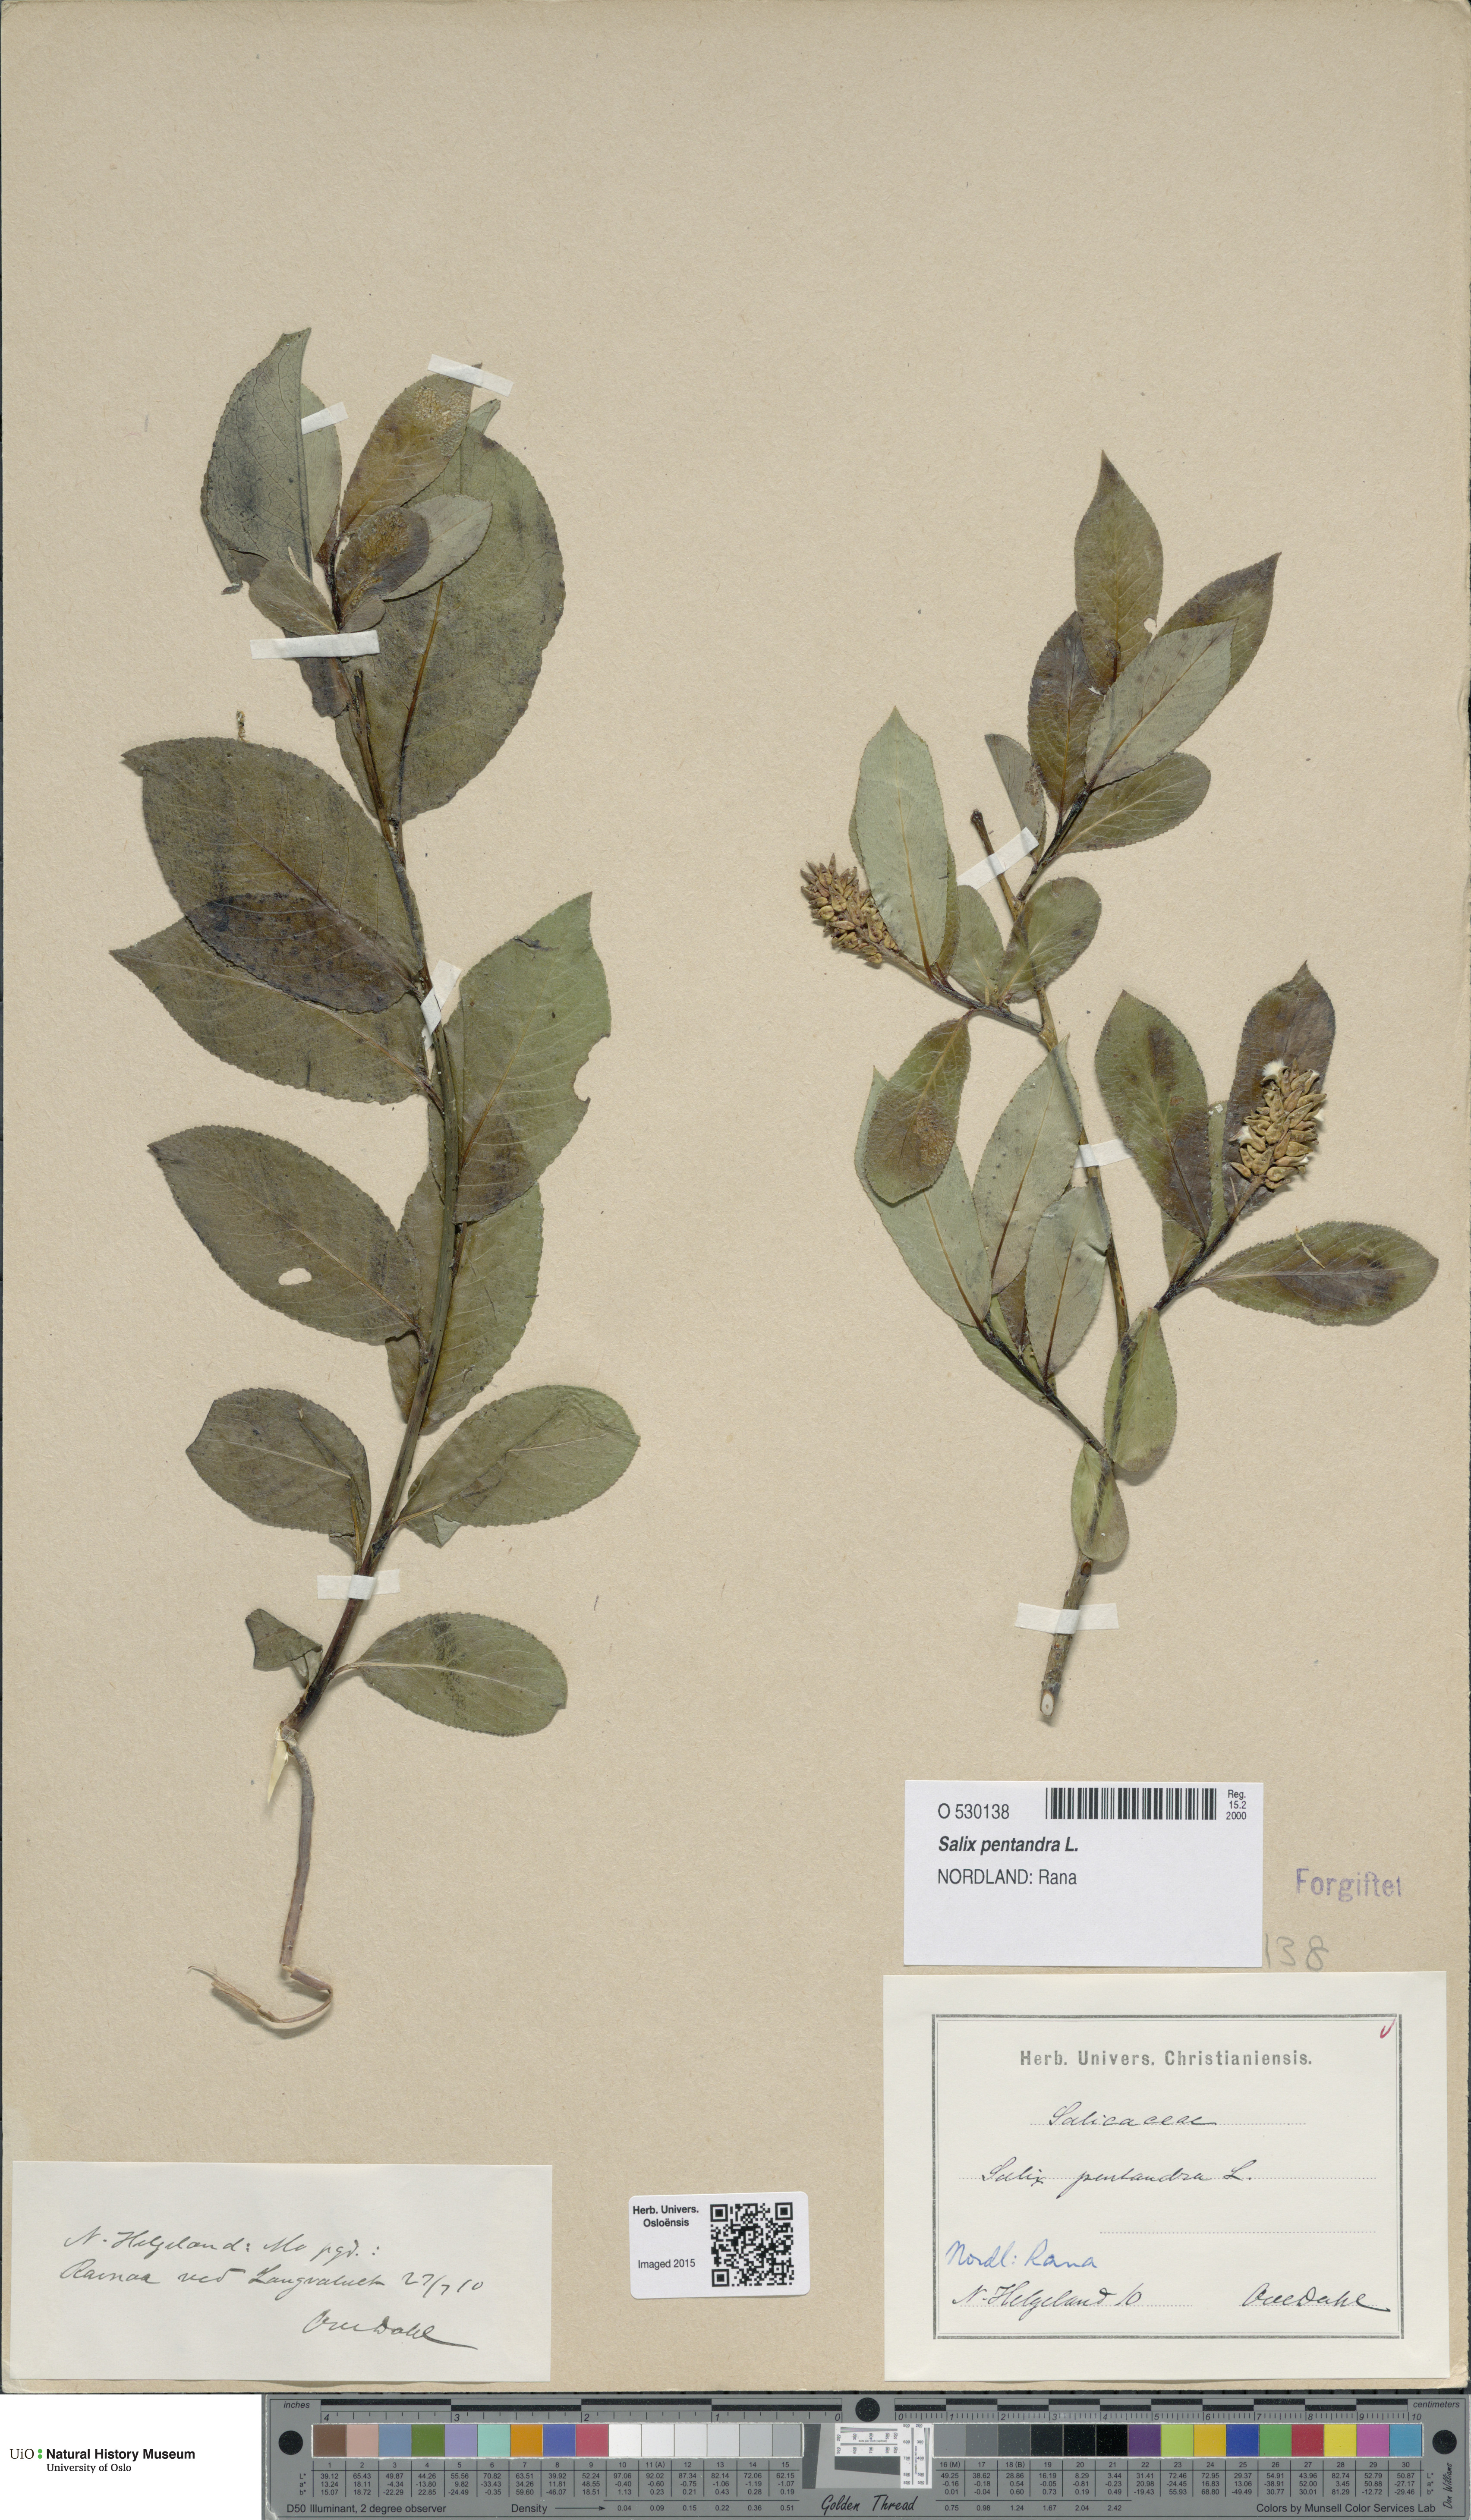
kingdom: Plantae
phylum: Tracheophyta
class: Magnoliopsida
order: Malpighiales
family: Salicaceae
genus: Salix
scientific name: Salix pentandra
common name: Bay willow
